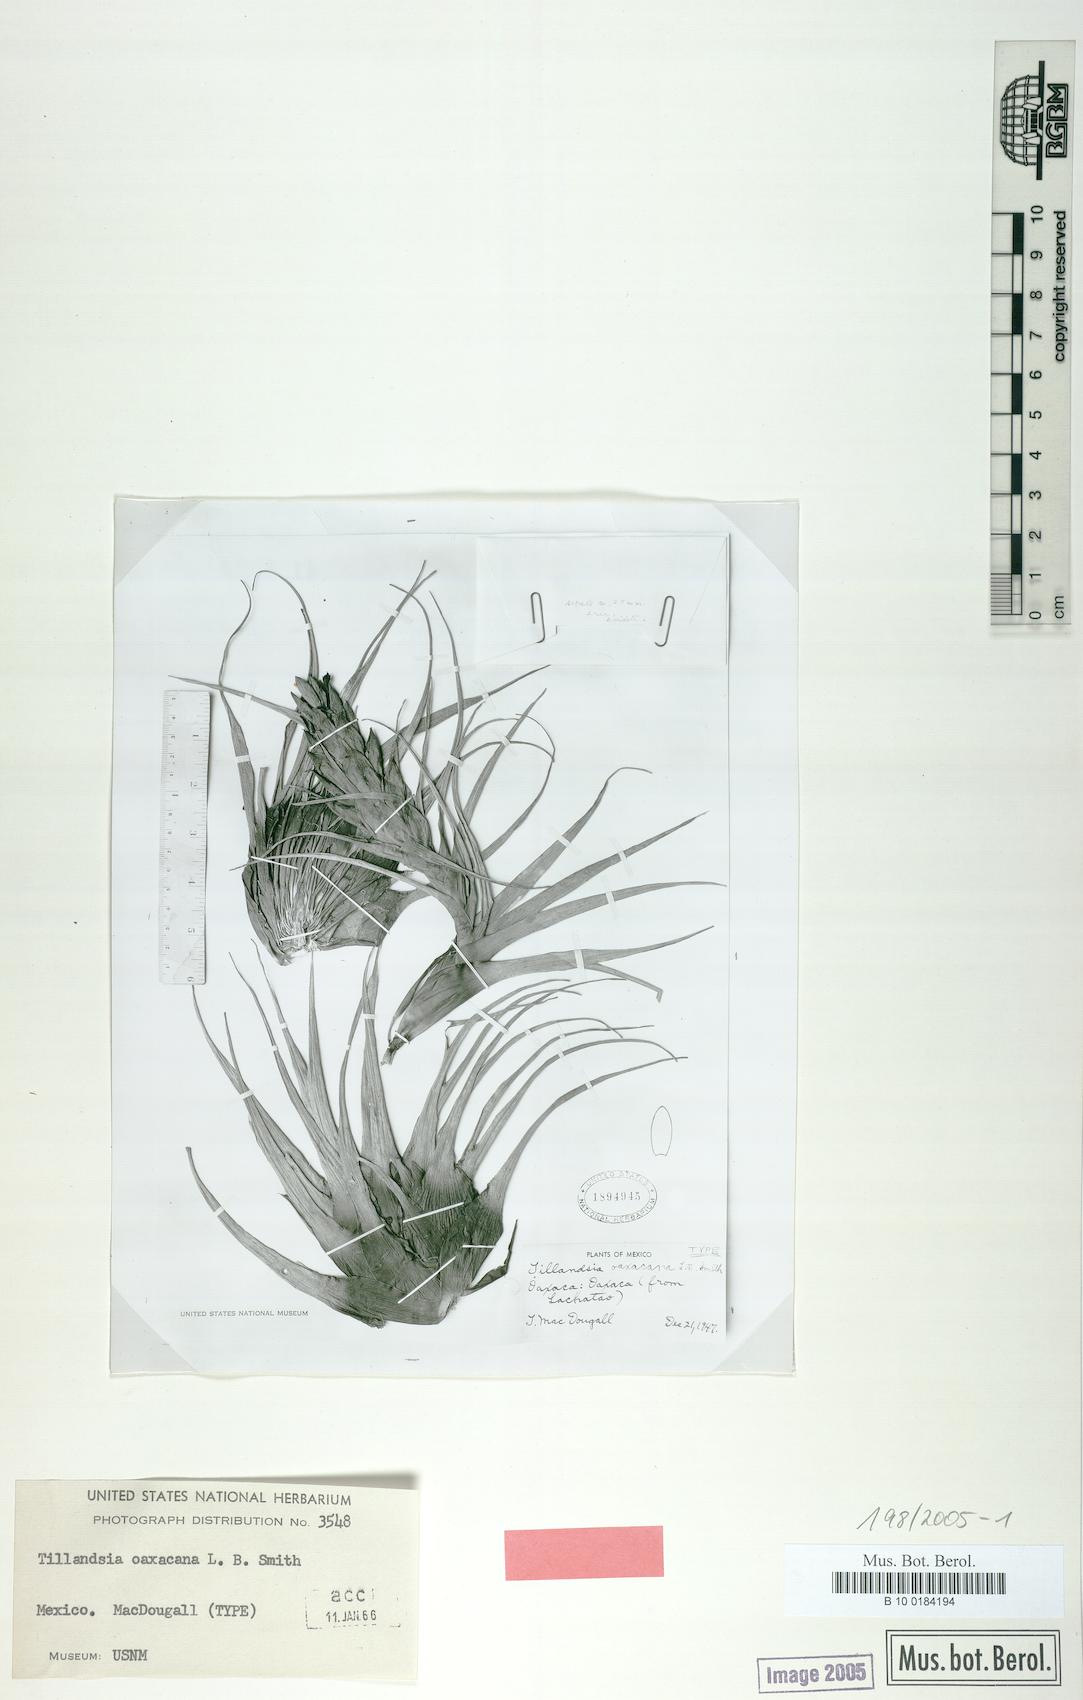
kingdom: Plantae
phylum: Tracheophyta
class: Liliopsida
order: Poales
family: Bromeliaceae
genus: Tillandsia
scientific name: Tillandsia oaxacana
